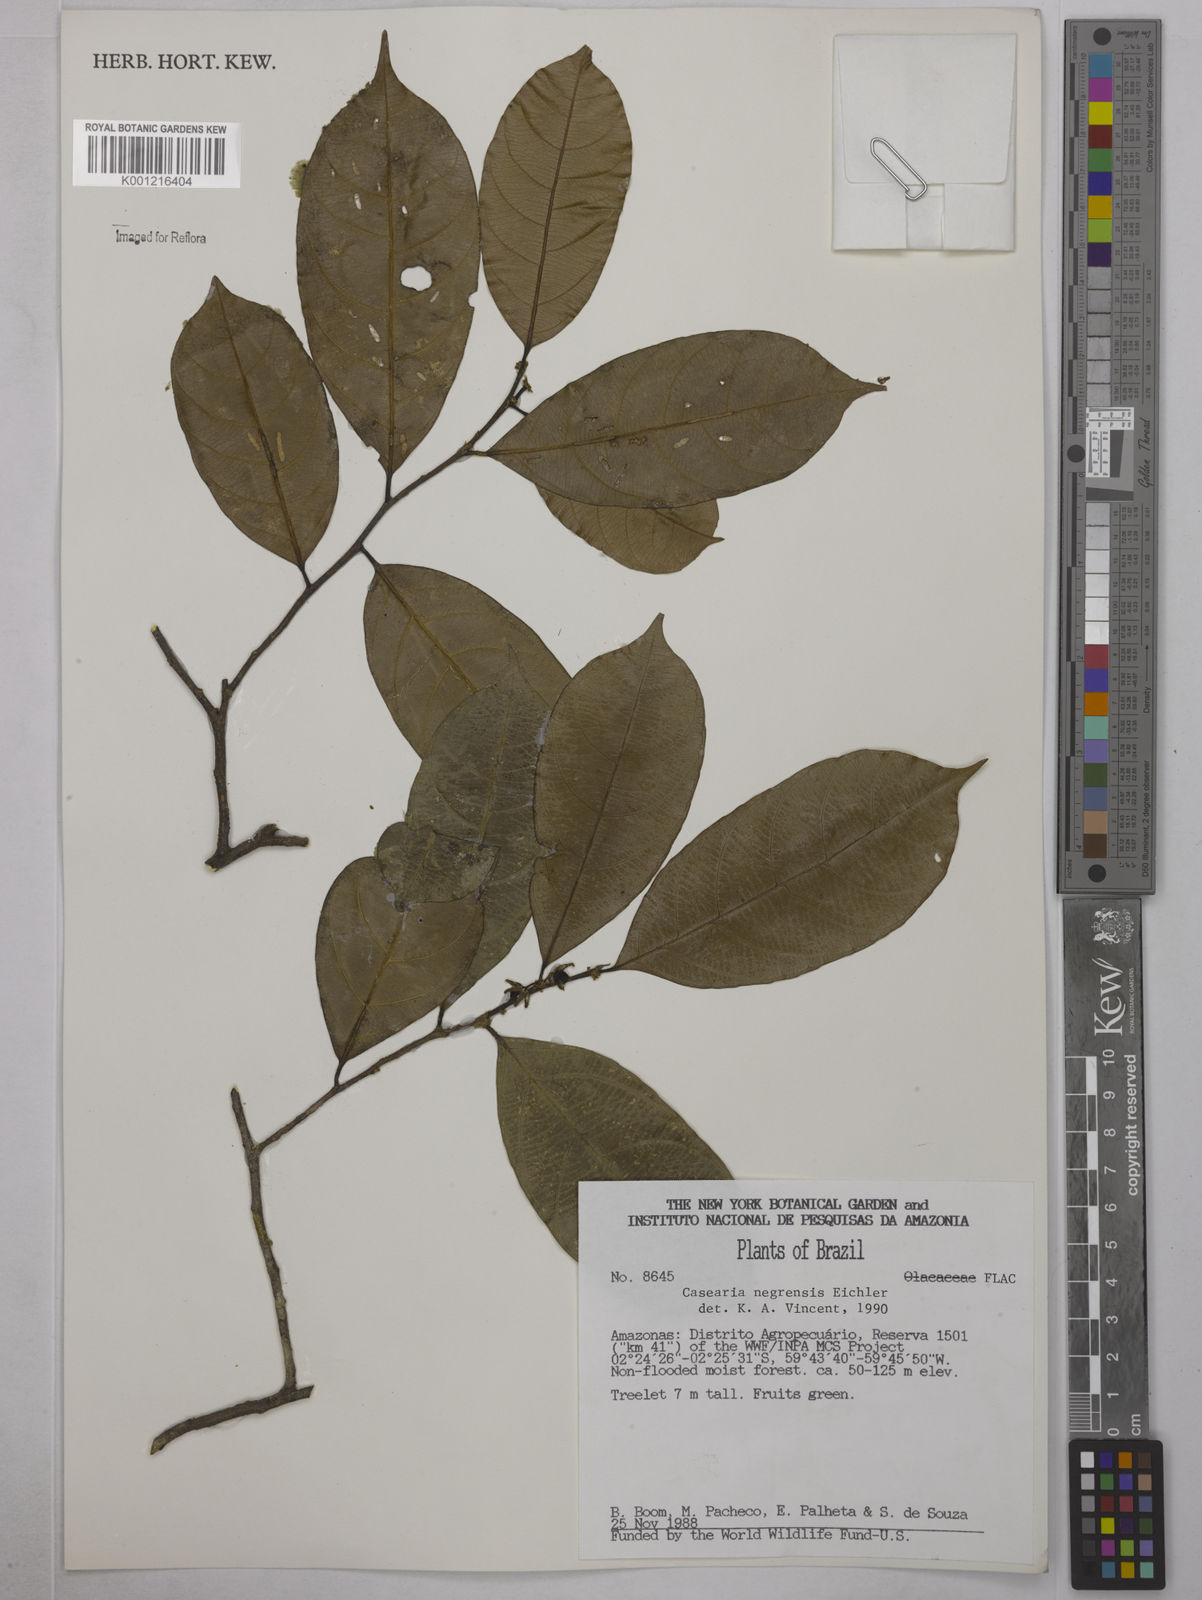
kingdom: Plantae
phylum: Tracheophyta
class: Magnoliopsida
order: Malpighiales
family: Salicaceae
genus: Casearia
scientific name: Casearia negrensis
